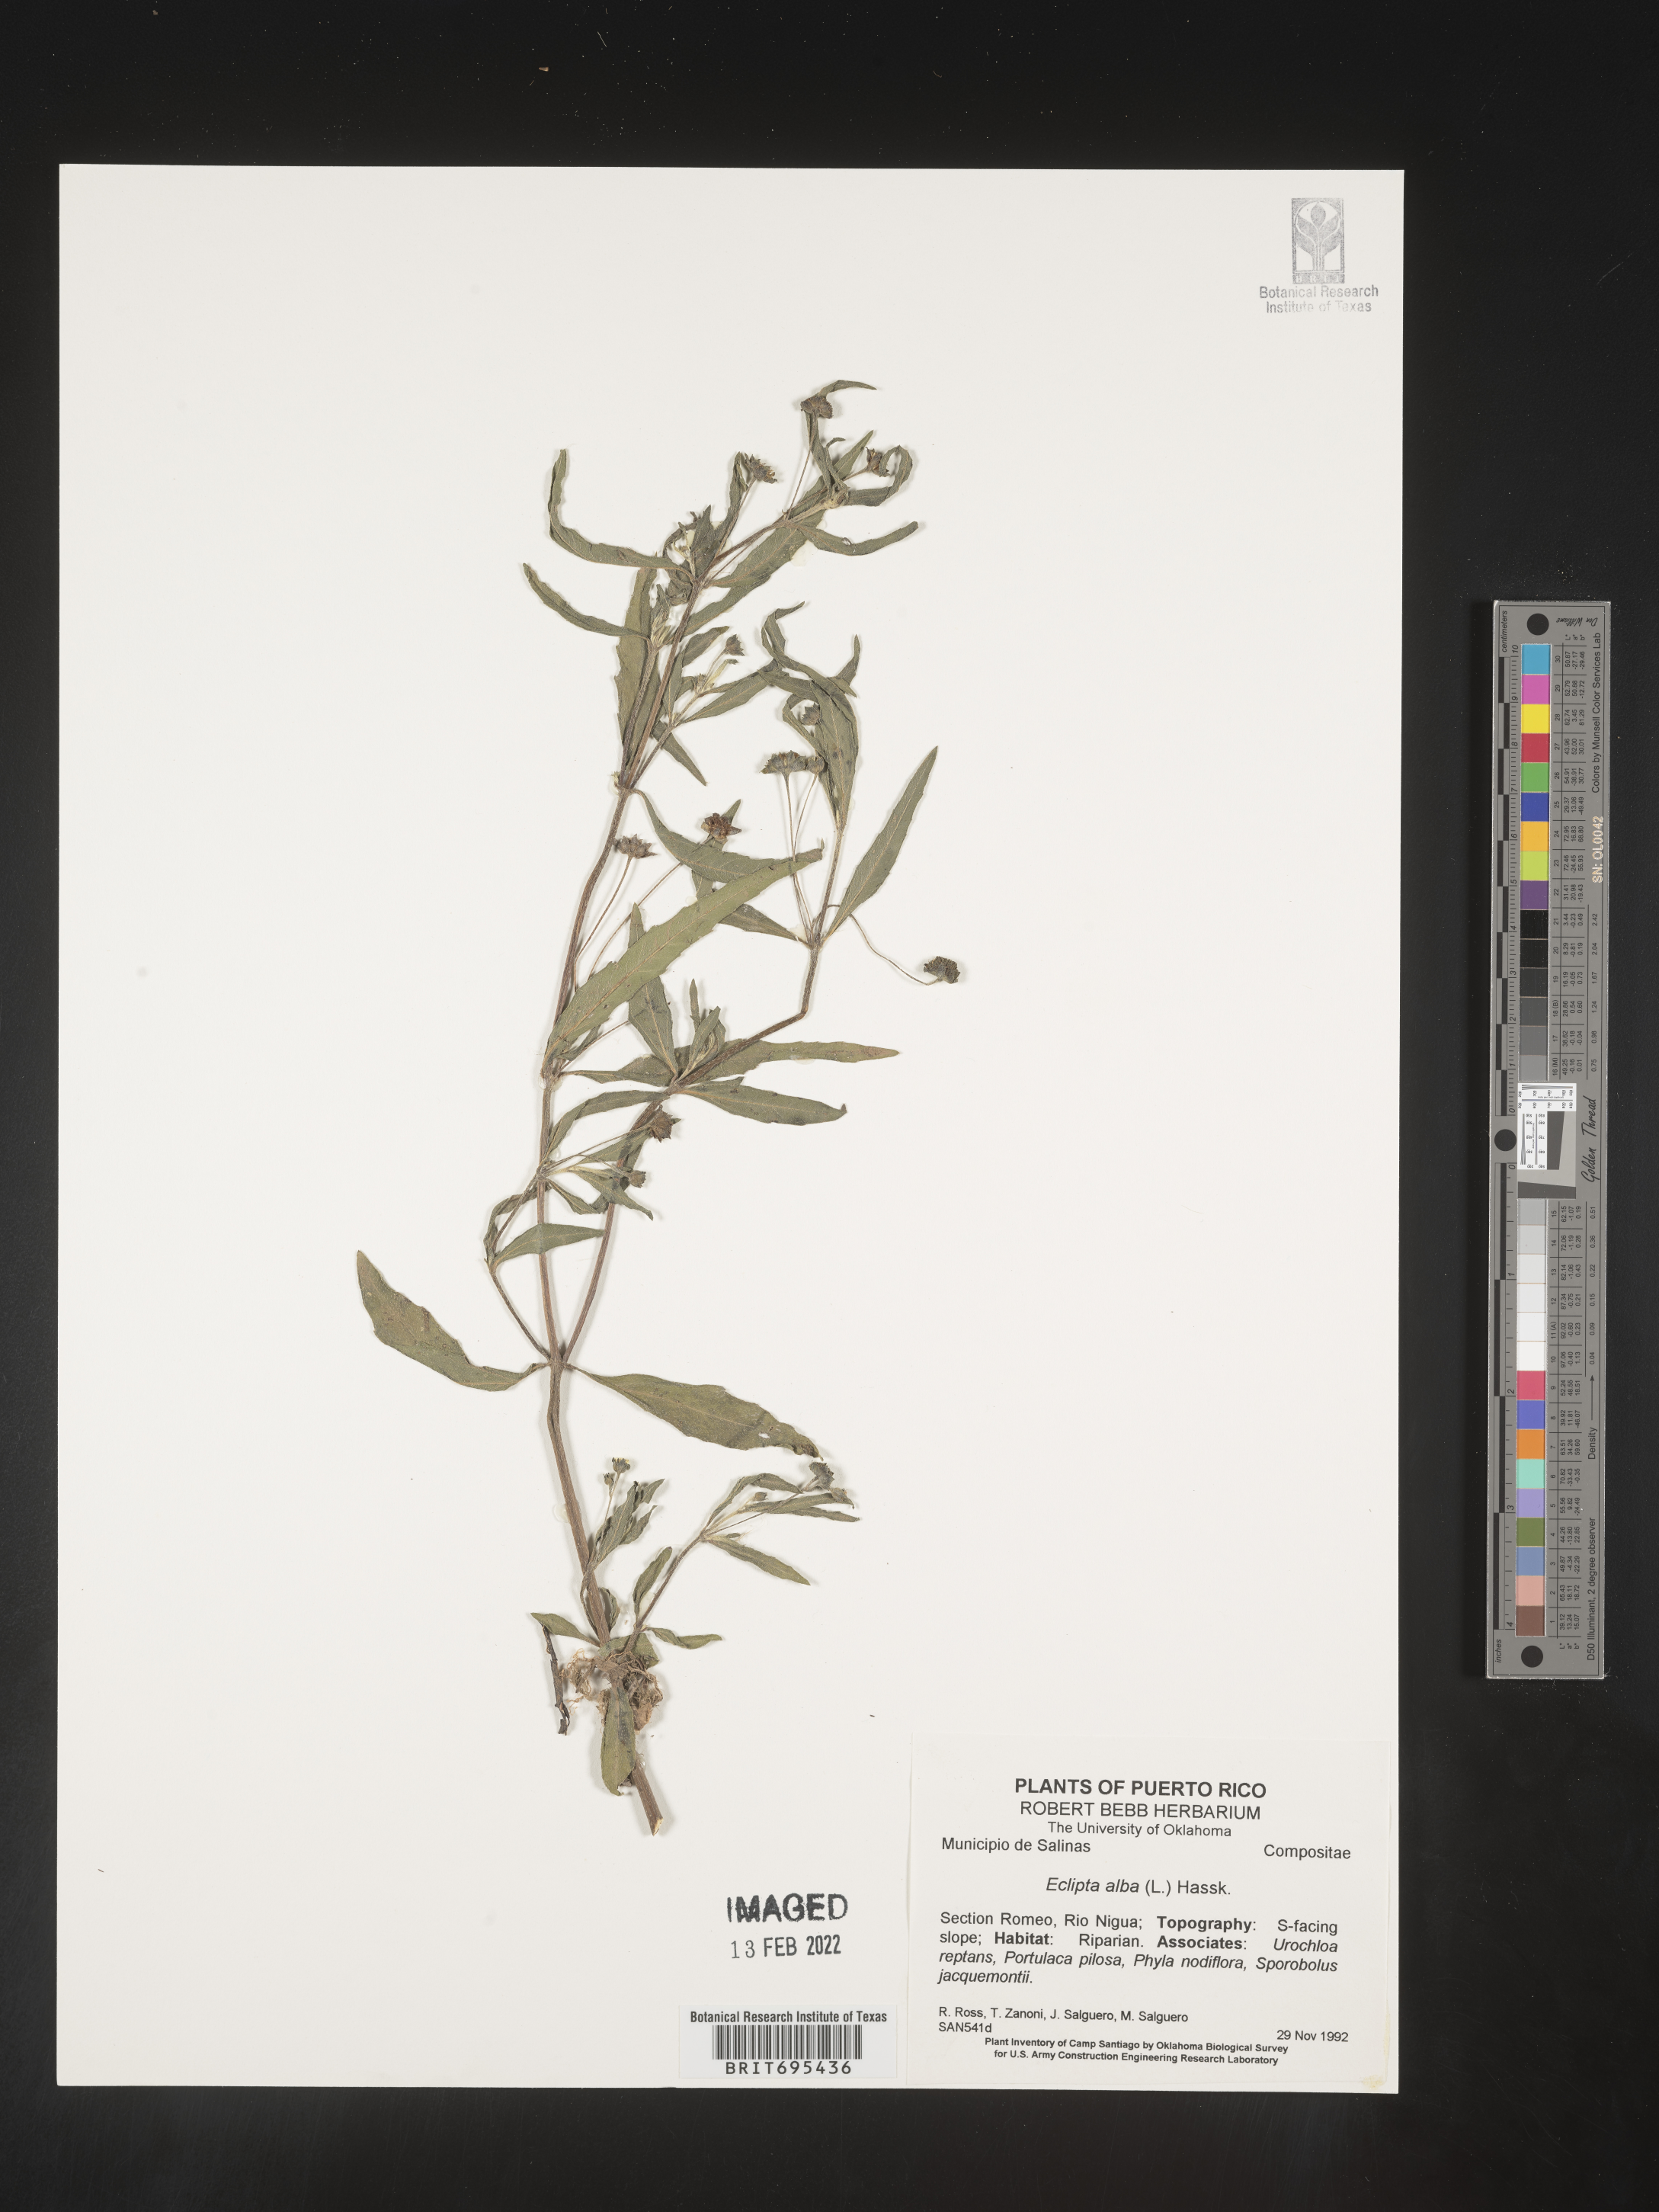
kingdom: Plantae
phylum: Tracheophyta
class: Magnoliopsida
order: Asterales
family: Asteraceae
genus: Eclipta
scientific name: Eclipta
